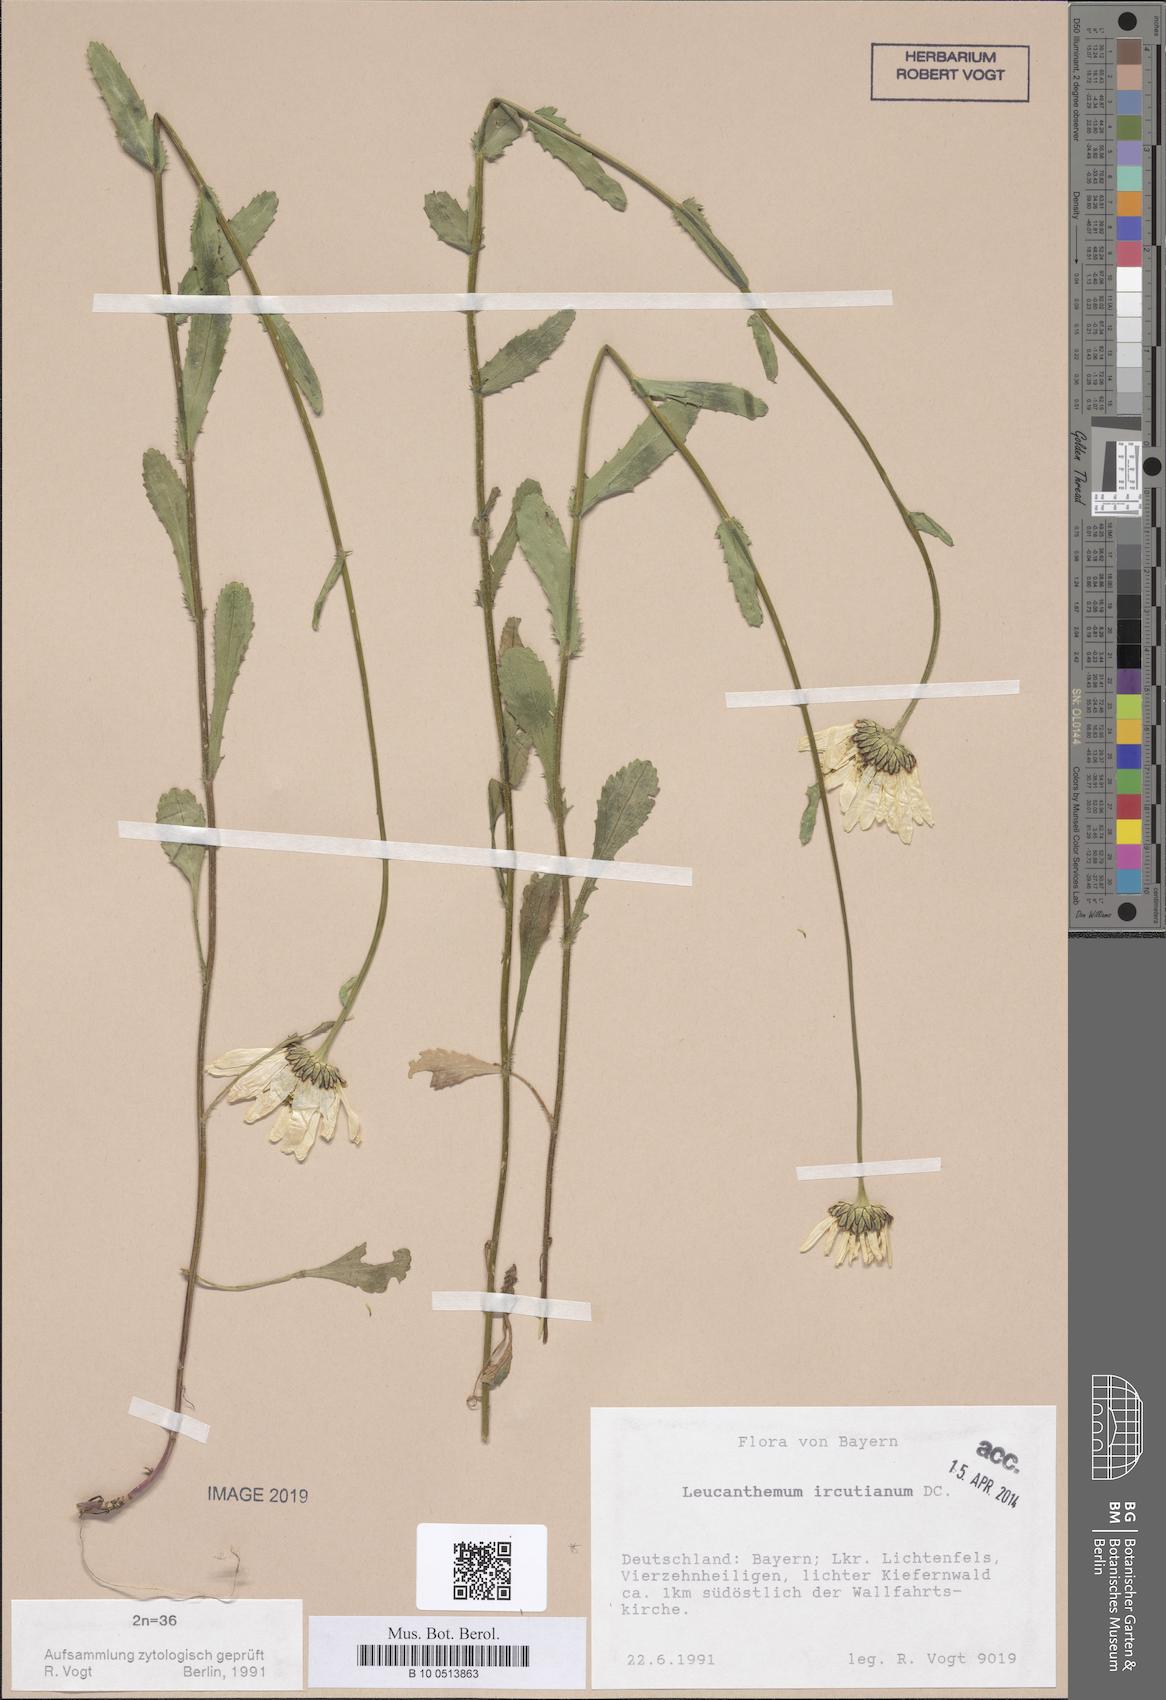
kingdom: Plantae
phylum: Tracheophyta
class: Magnoliopsida
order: Asterales
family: Asteraceae
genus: Leucanthemum
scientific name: Leucanthemum ircutianum
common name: Daisy
